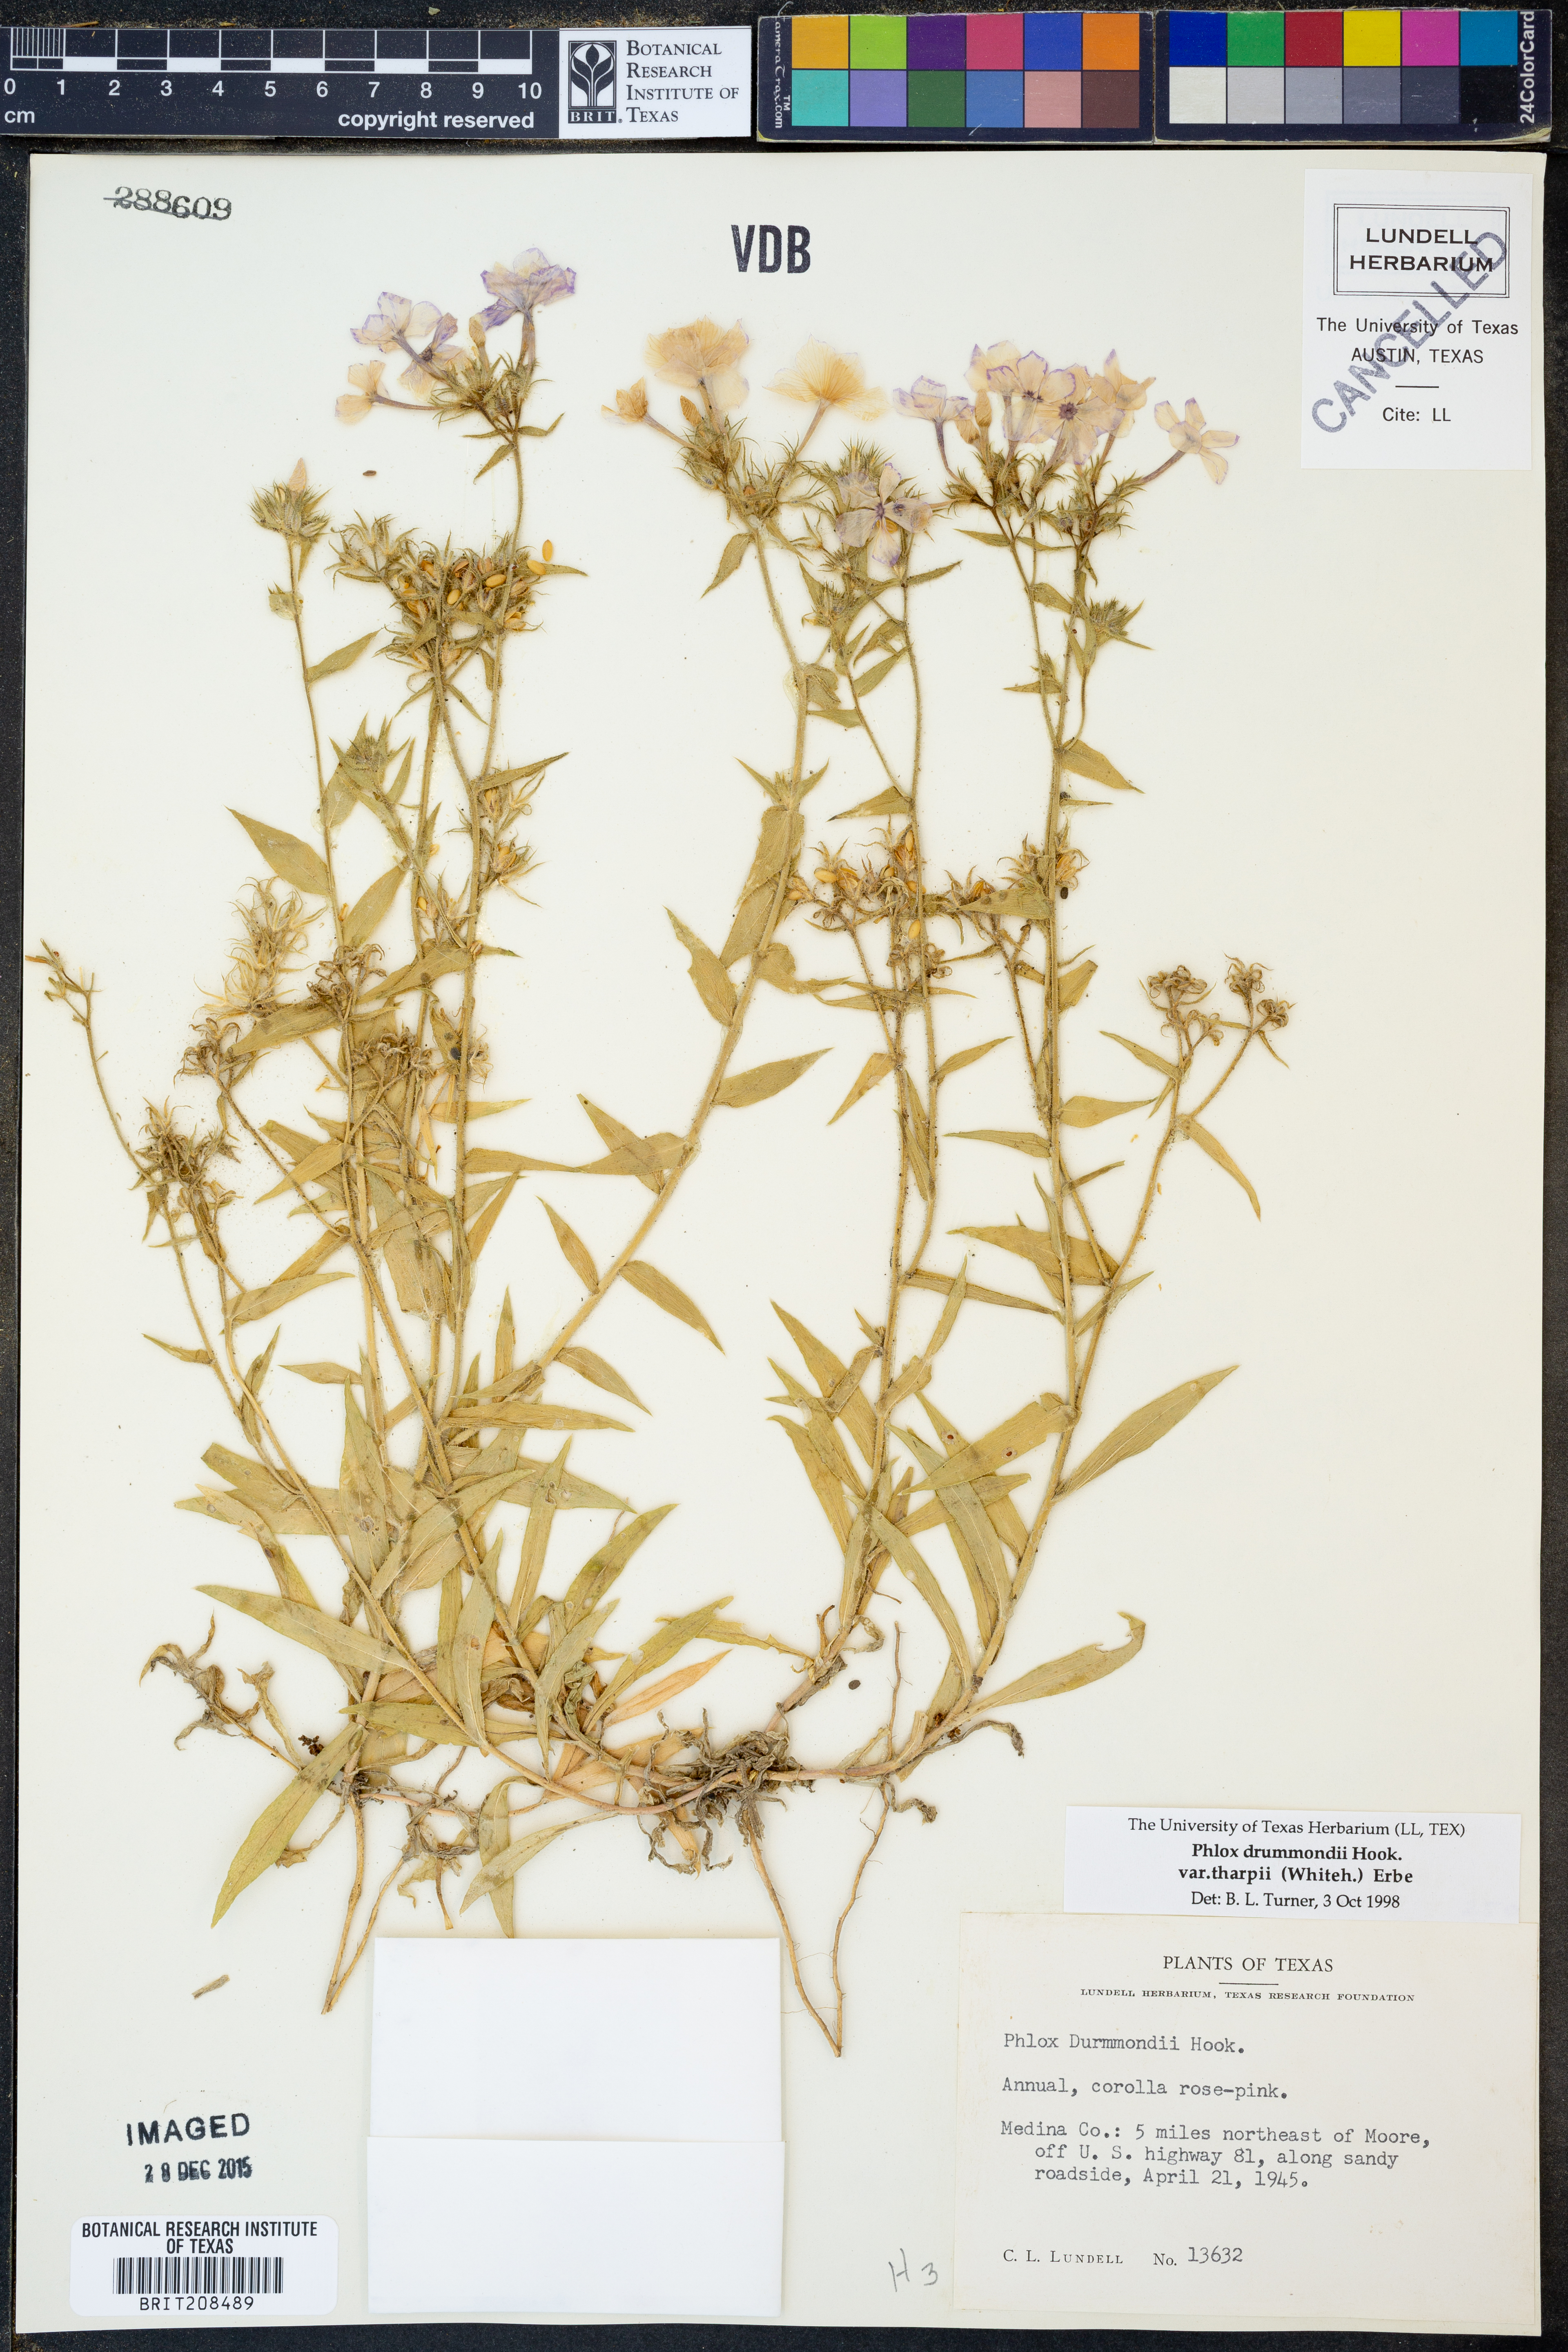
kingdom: Plantae
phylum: Tracheophyta
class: Magnoliopsida
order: Ericales
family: Polemoniaceae
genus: Phlox
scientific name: Phlox drummondii
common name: Drummond's phlox
